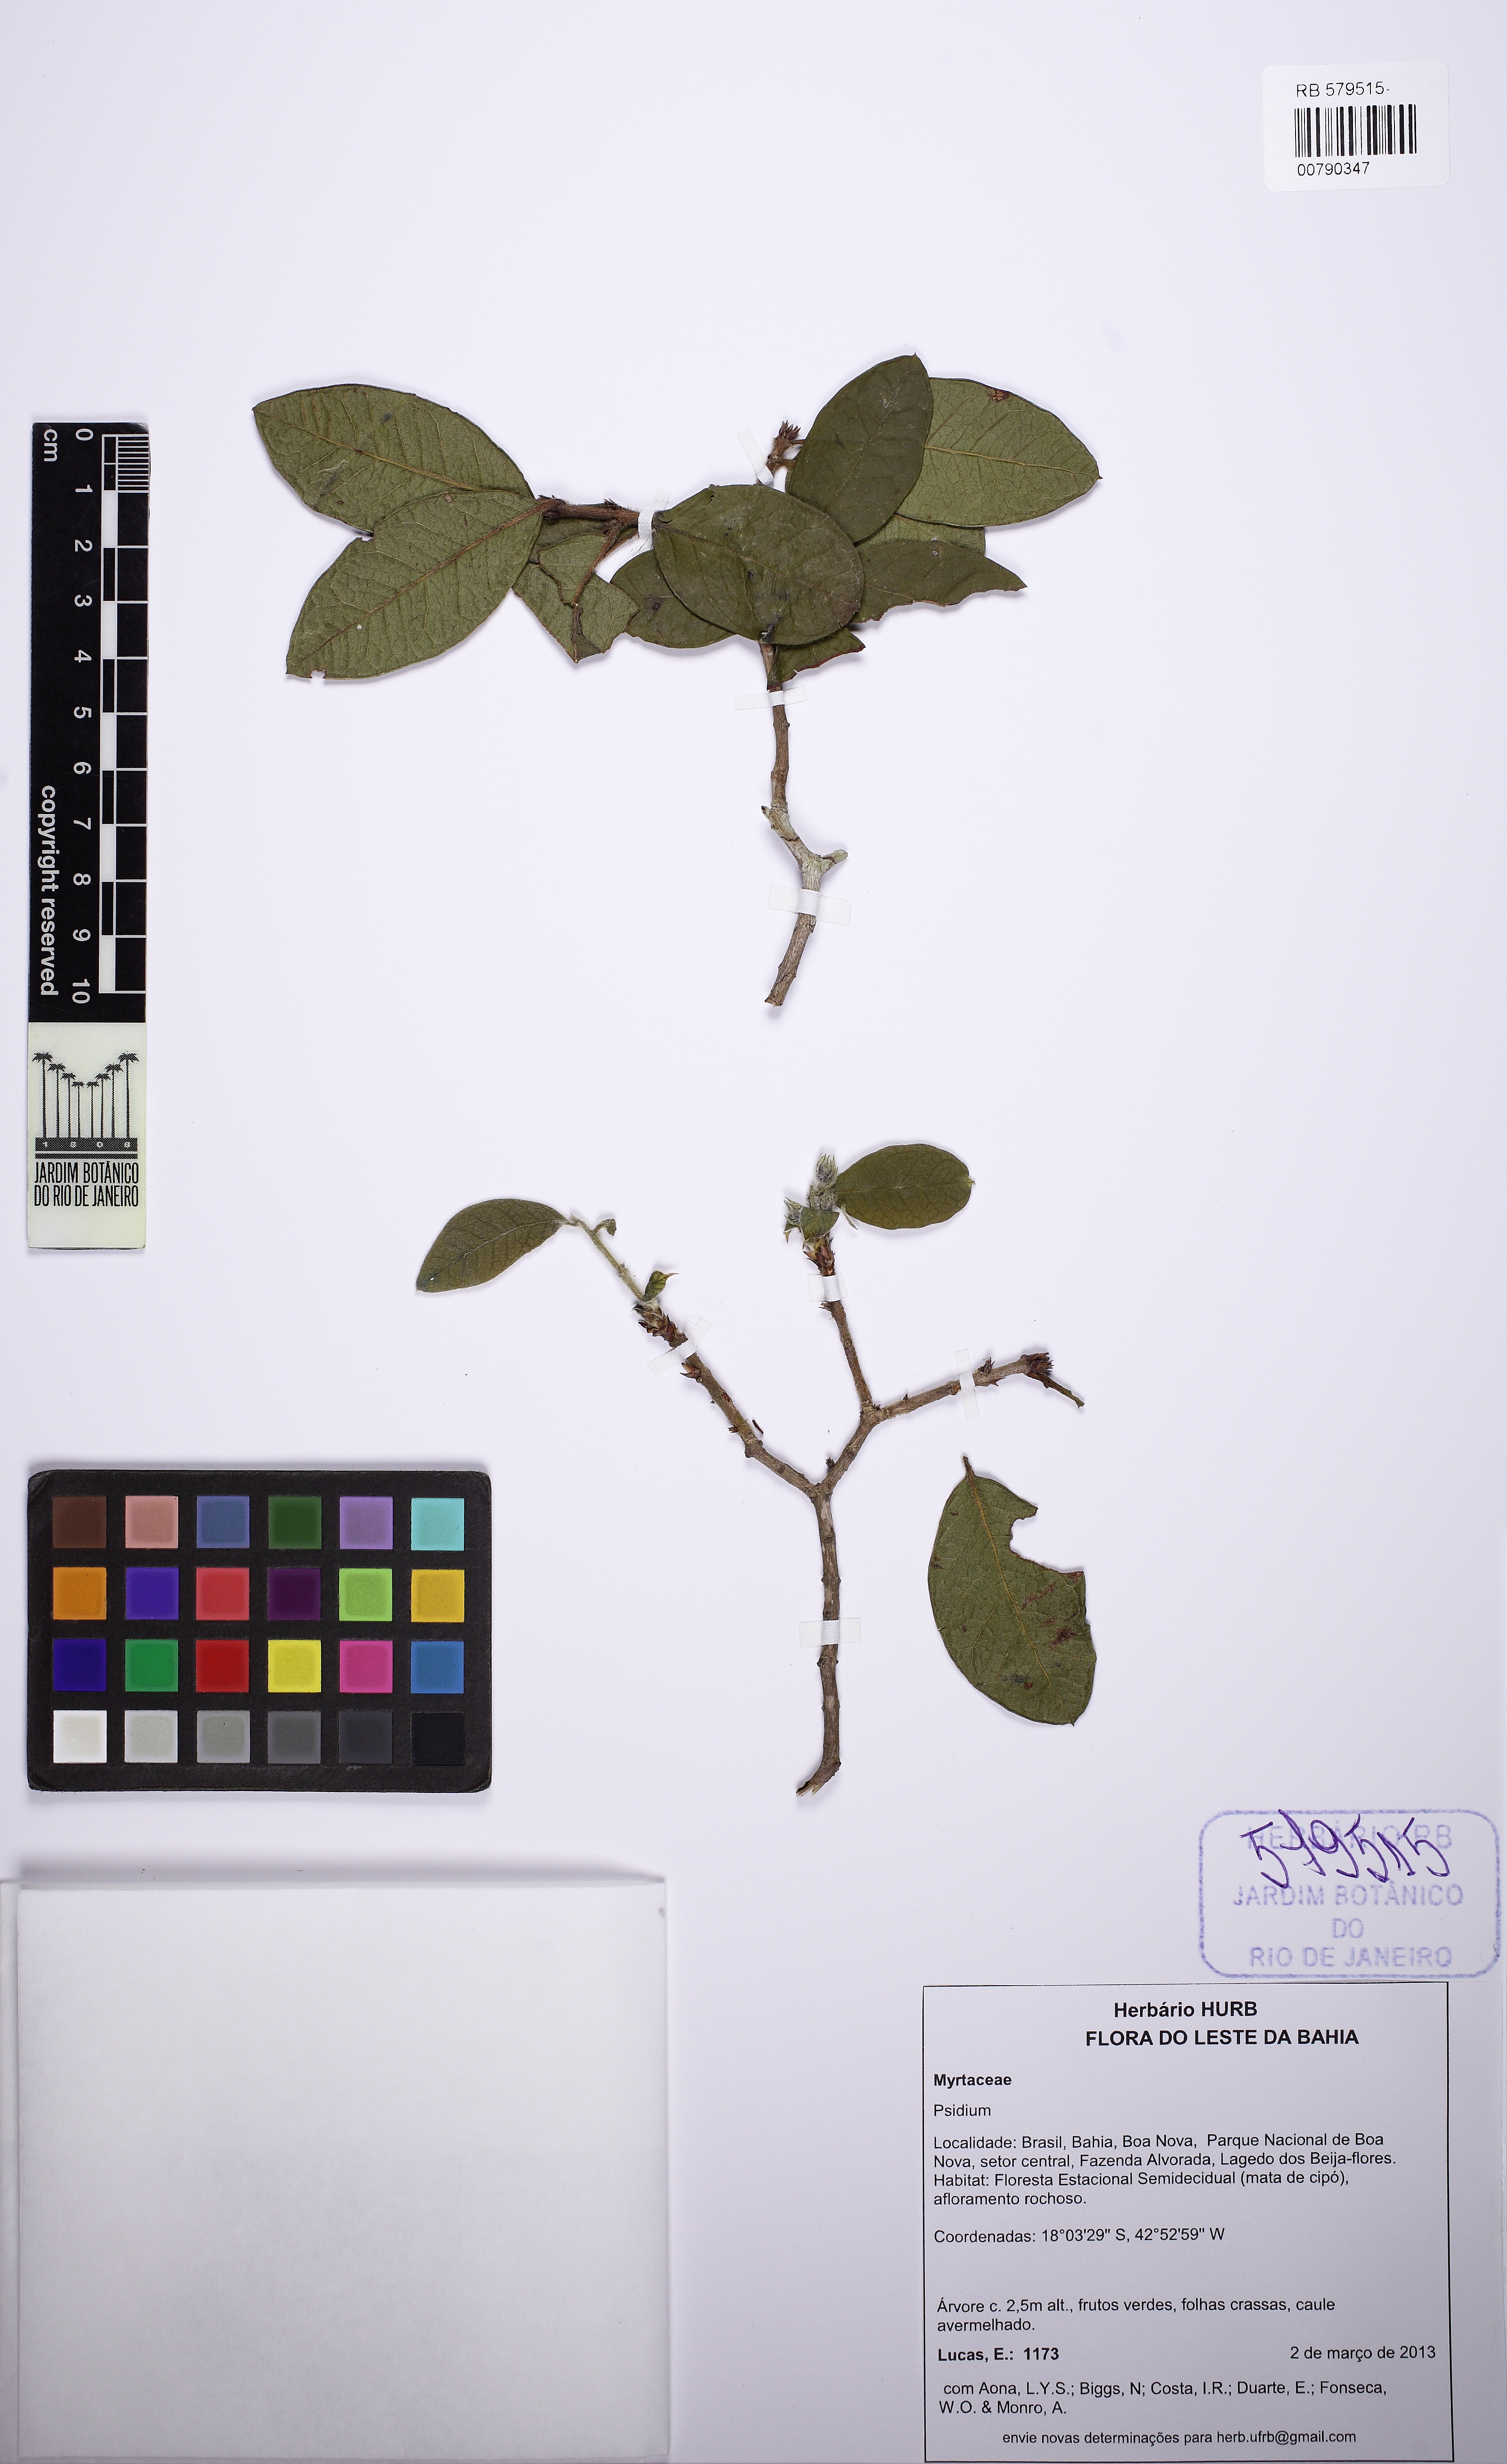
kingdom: Plantae
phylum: Tracheophyta
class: Magnoliopsida
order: Myrtales
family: Myrtaceae
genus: Psidium
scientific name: Psidium appendiculatum
